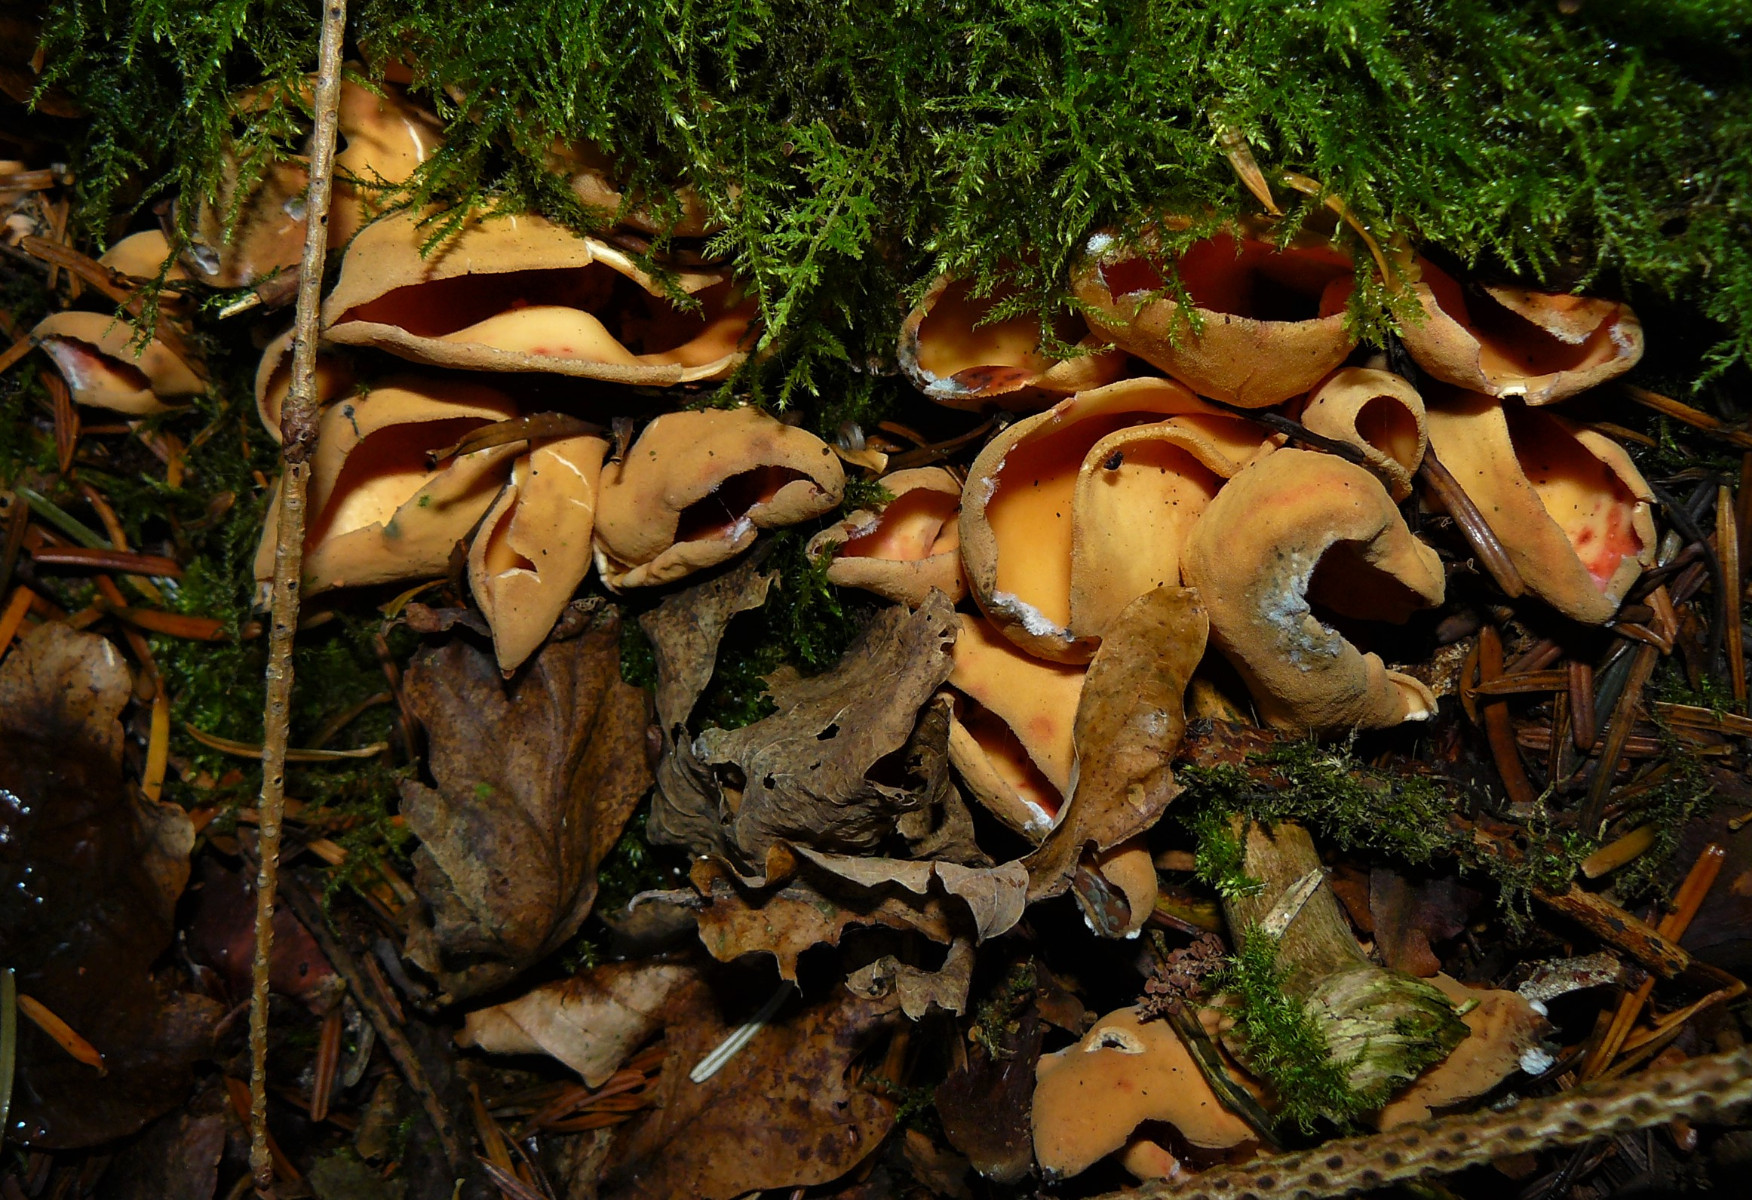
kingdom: Fungi
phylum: Ascomycota
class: Pezizomycetes
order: Pezizales
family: Otideaceae
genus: Otidea
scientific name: Otidea onotica
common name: æsel-ørebæger
